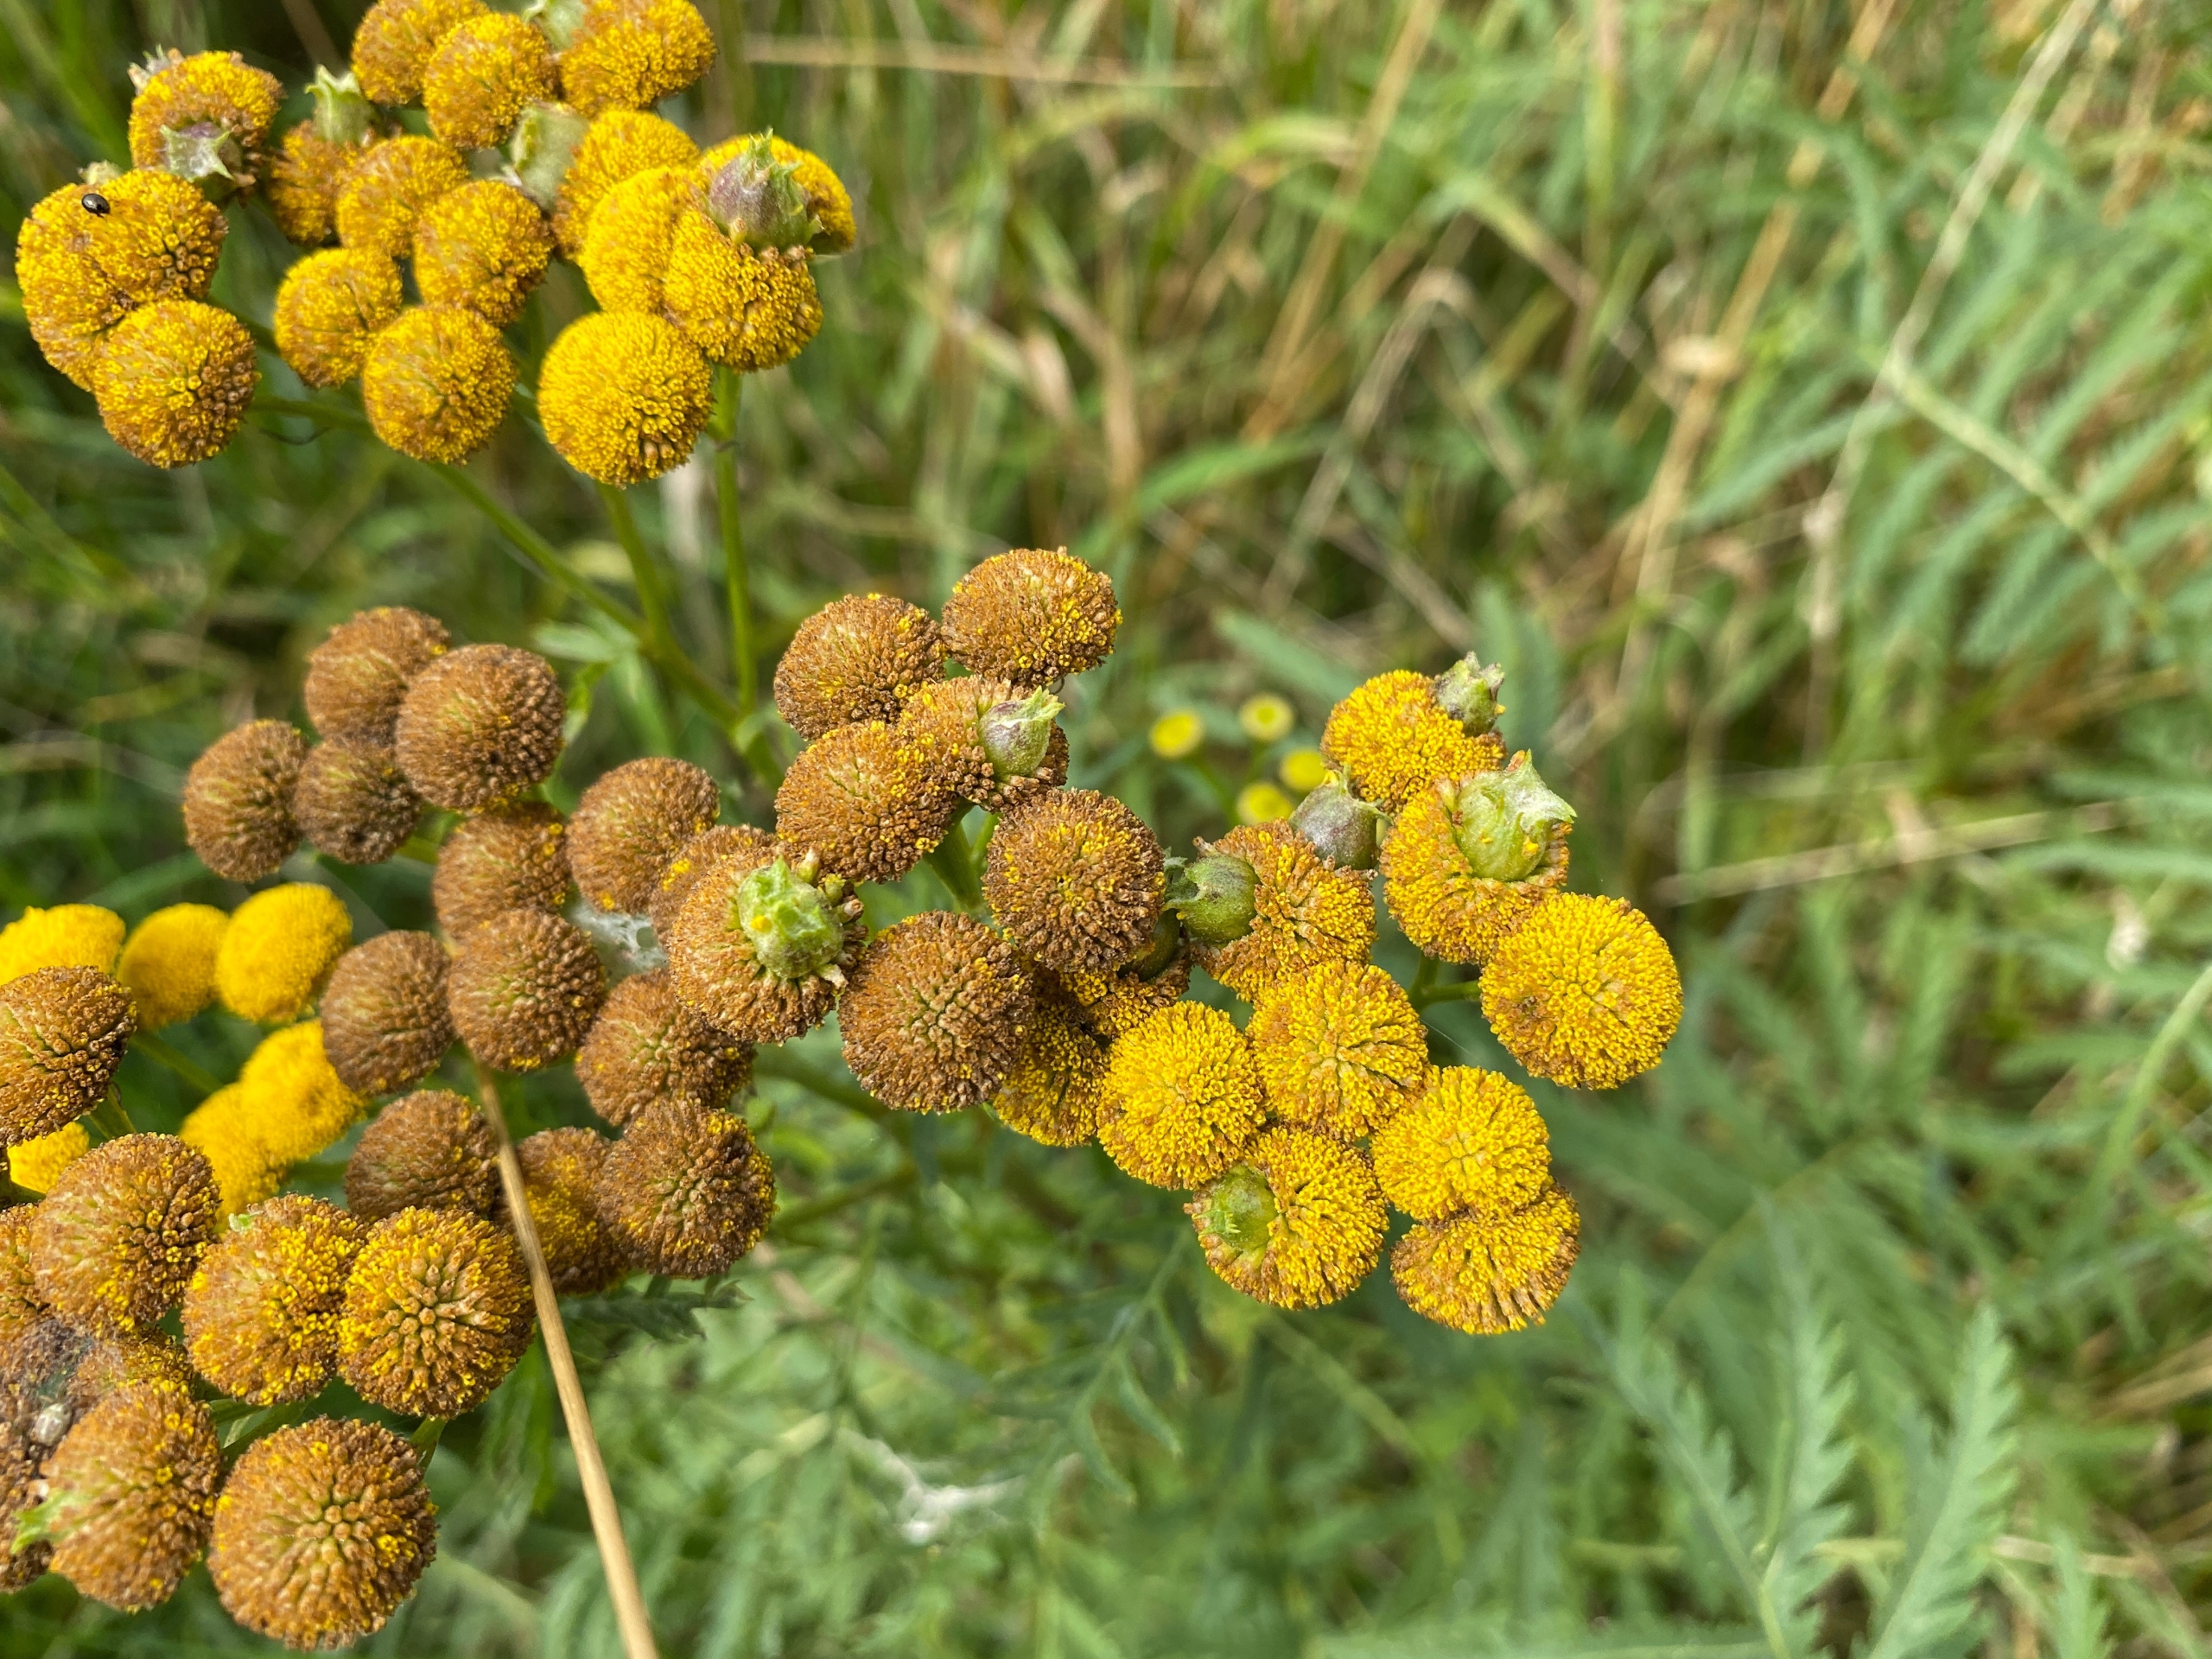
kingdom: Animalia
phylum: Arthropoda
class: Insecta
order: Diptera
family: Cecidomyiidae
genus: Rhopalomyia
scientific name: Rhopalomyia tanaceticolus
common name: Rejnfangalmyg
